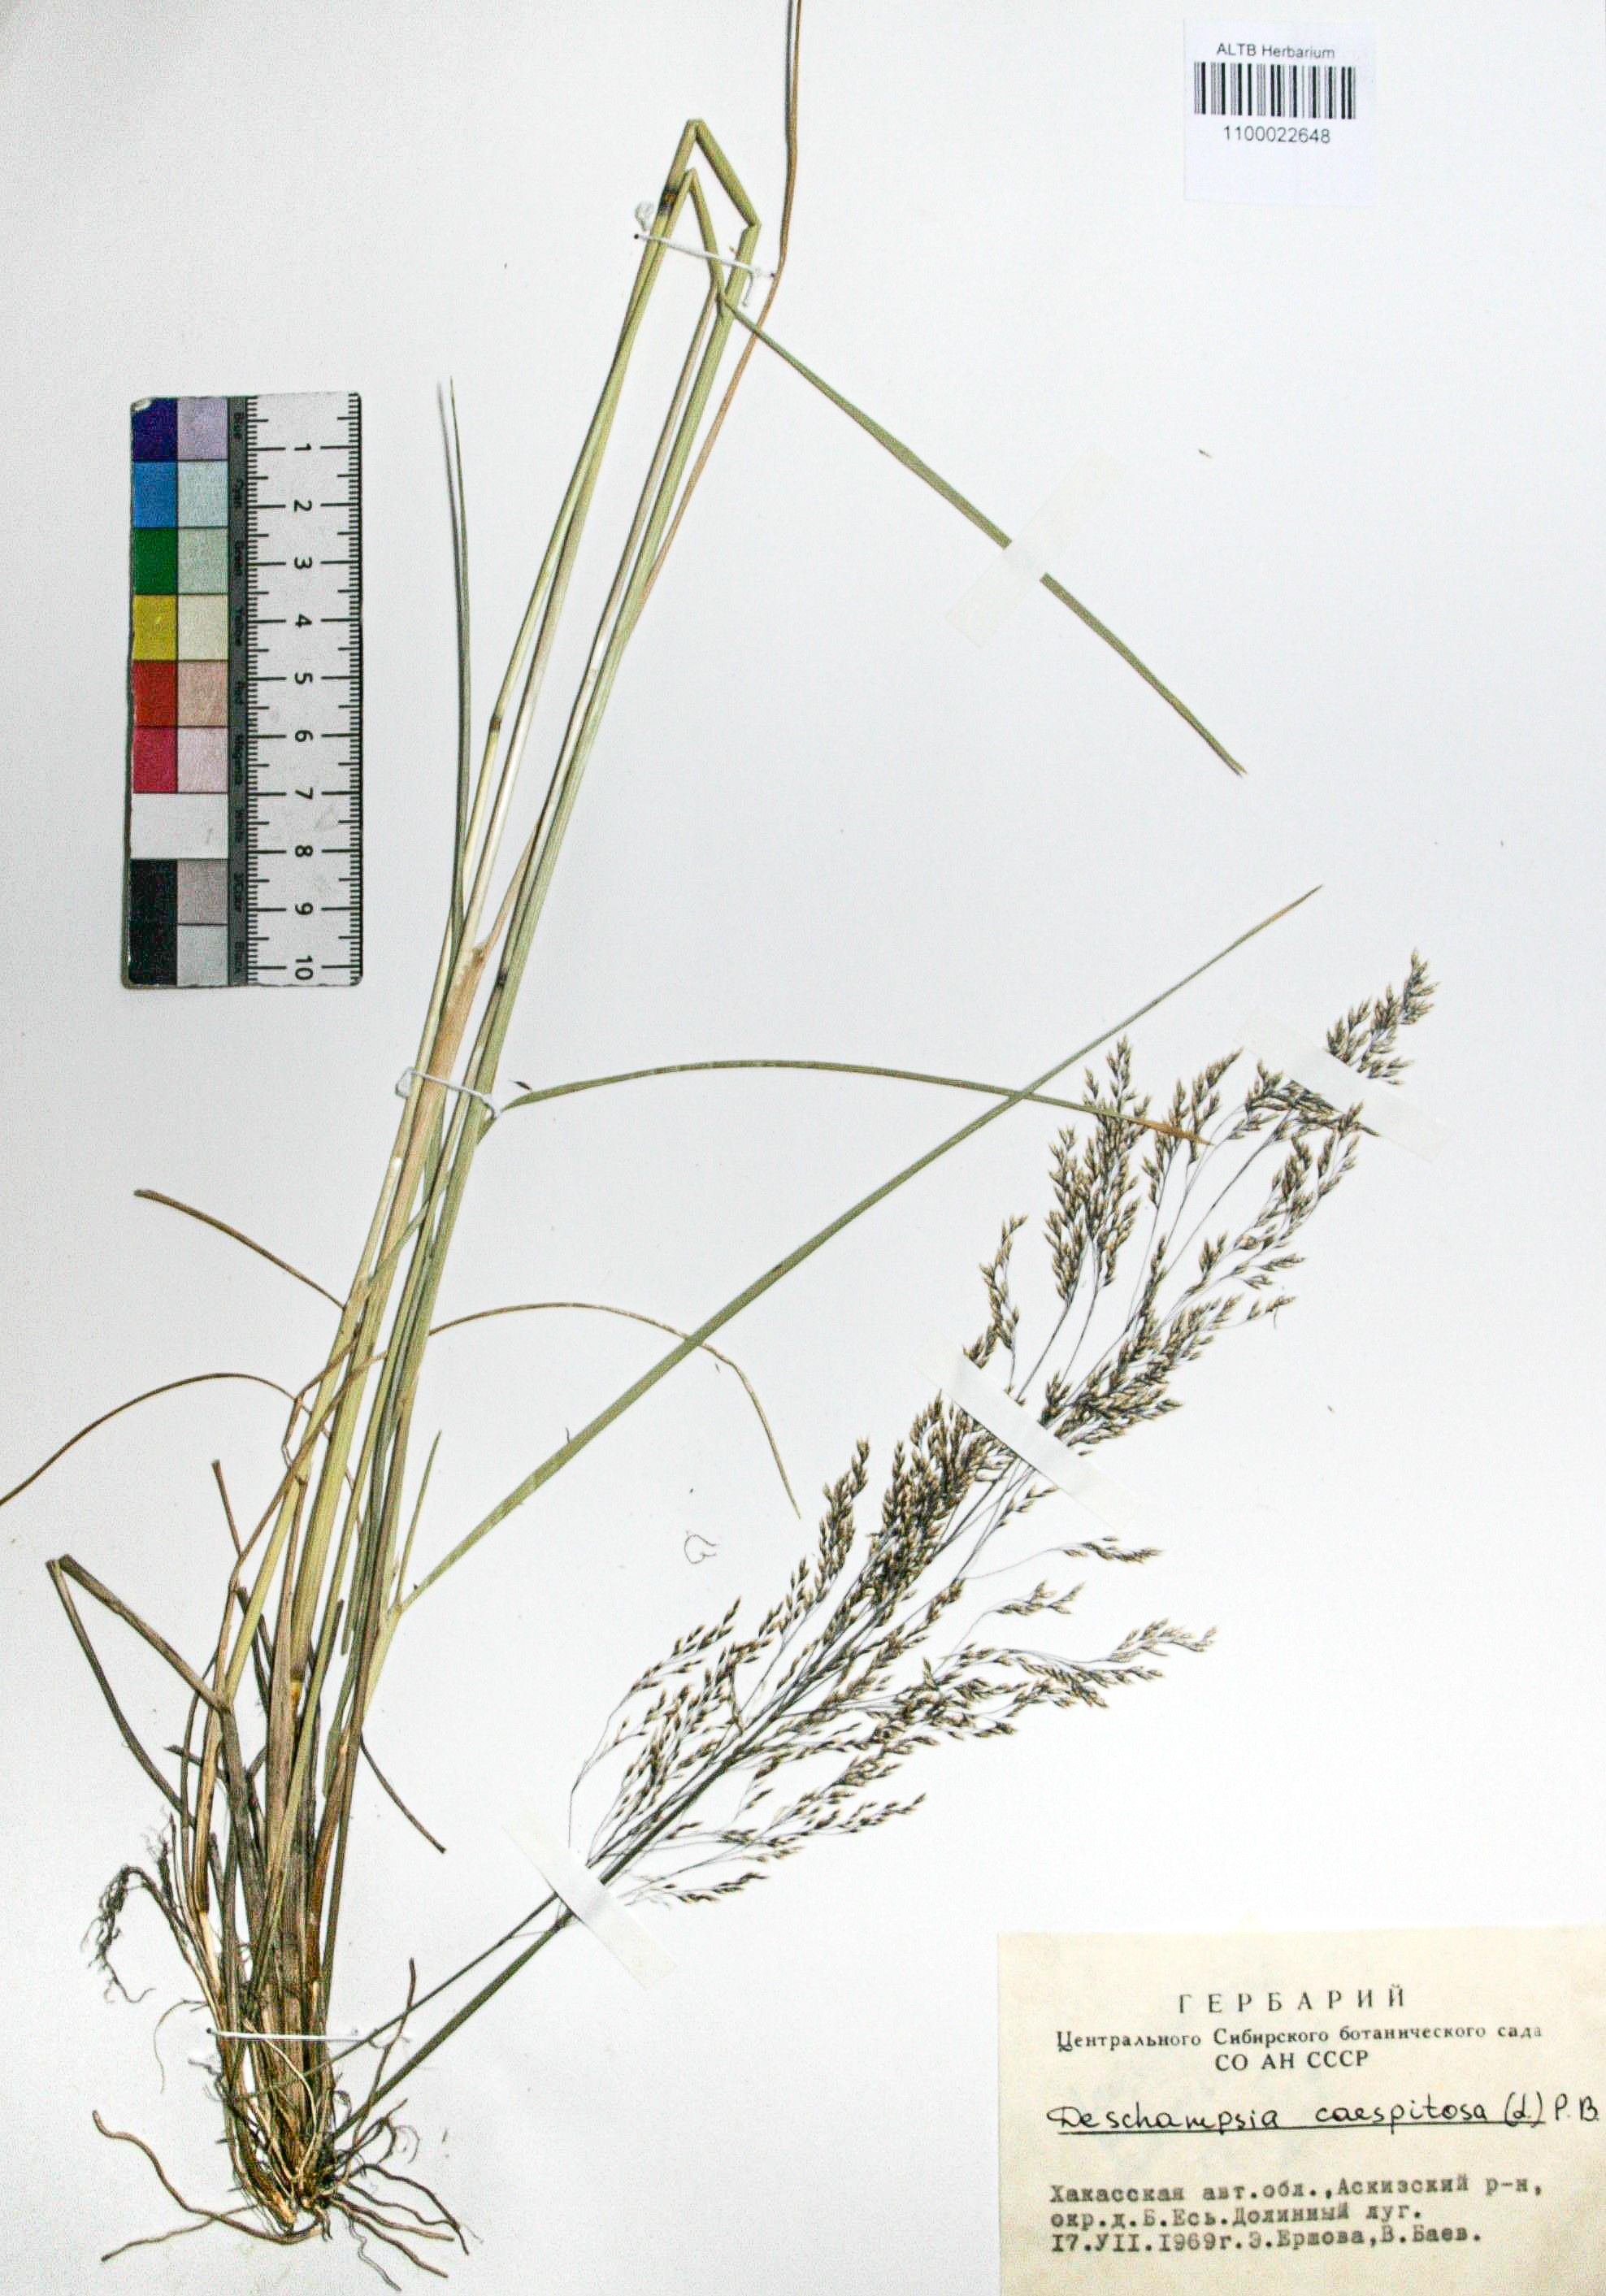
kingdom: Plantae
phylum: Tracheophyta
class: Liliopsida
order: Poales
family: Poaceae
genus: Deschampsia
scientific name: Deschampsia cespitosa
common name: Tufted hair-grass
